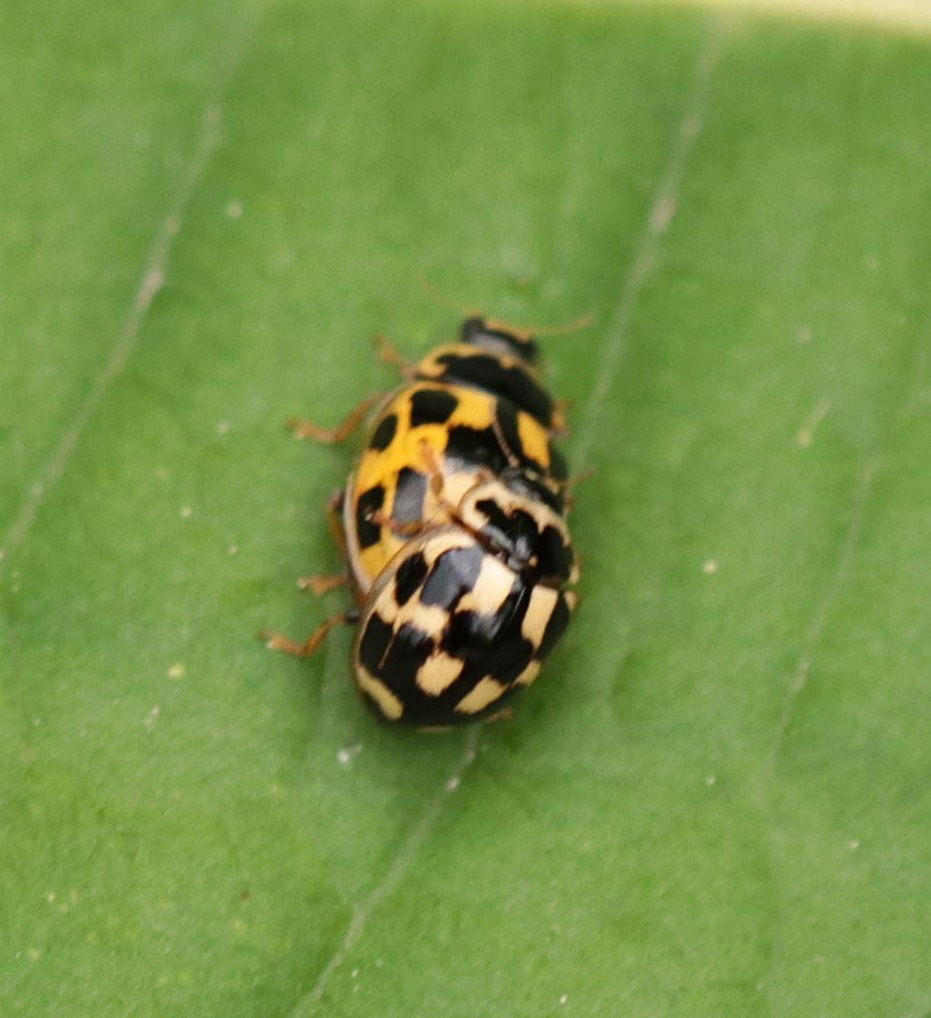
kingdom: Animalia
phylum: Arthropoda
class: Insecta
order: Coleoptera
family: Coccinellidae
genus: Propylaea
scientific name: Propylaea quatuordecimpunctata
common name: Skakbræt
